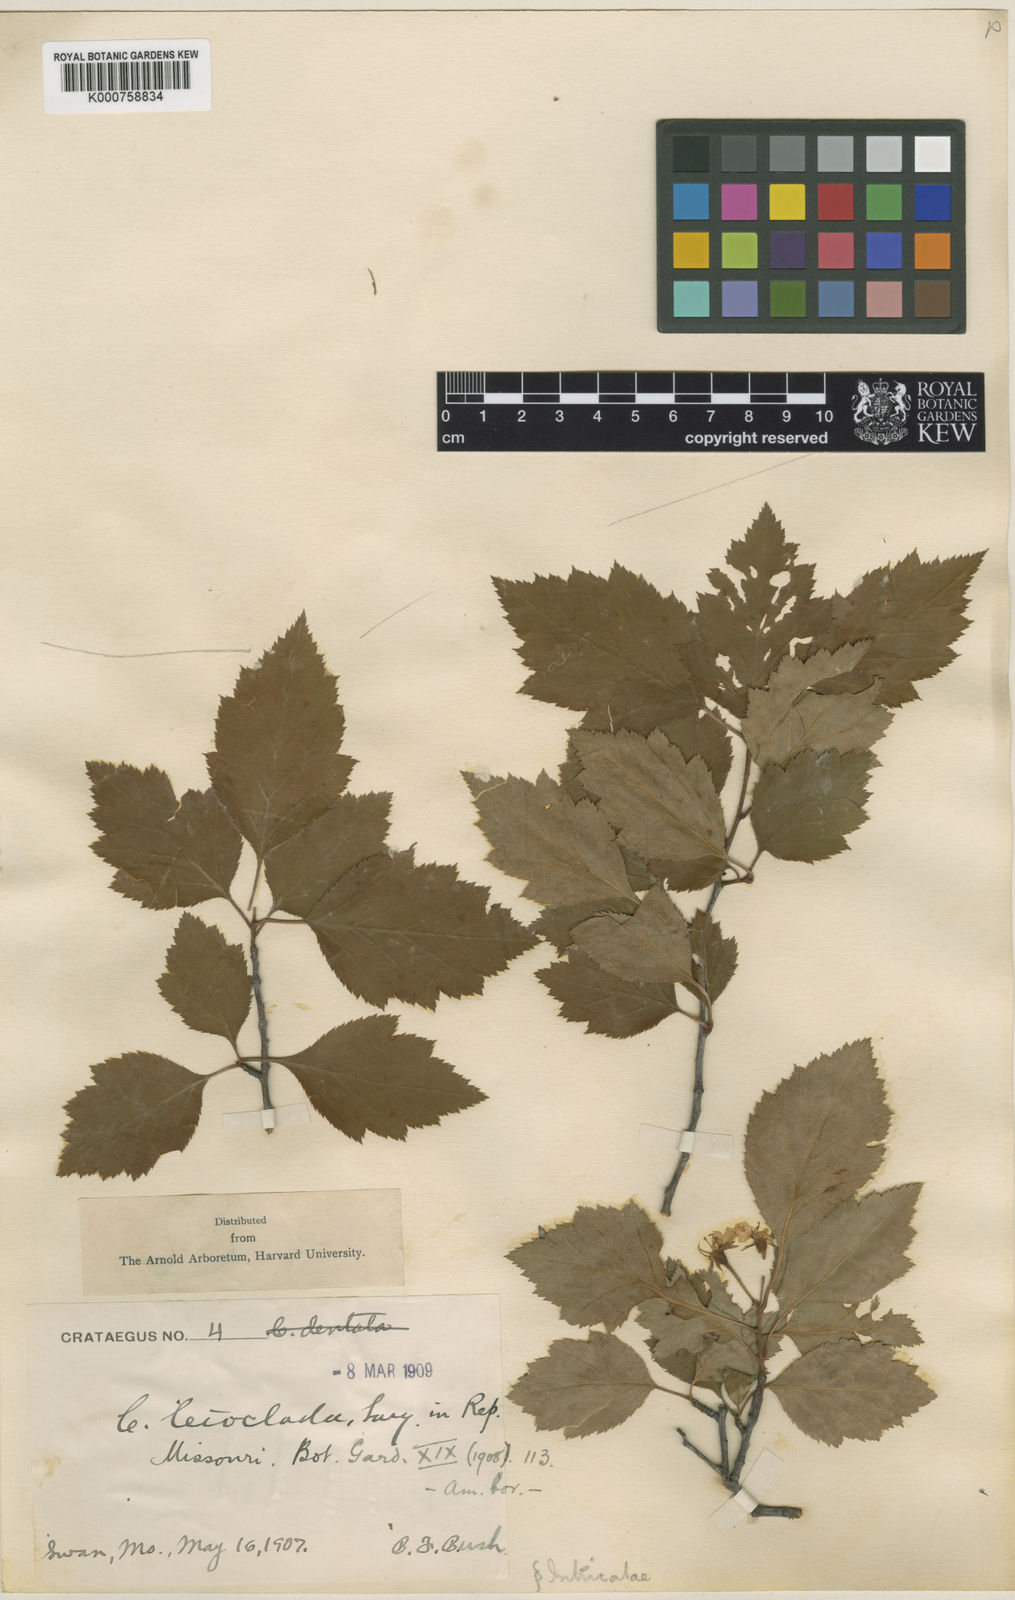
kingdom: Plantae
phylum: Tracheophyta
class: Magnoliopsida
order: Rosales
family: Rosaceae
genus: Crataegus
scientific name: Crataegus leioclada
